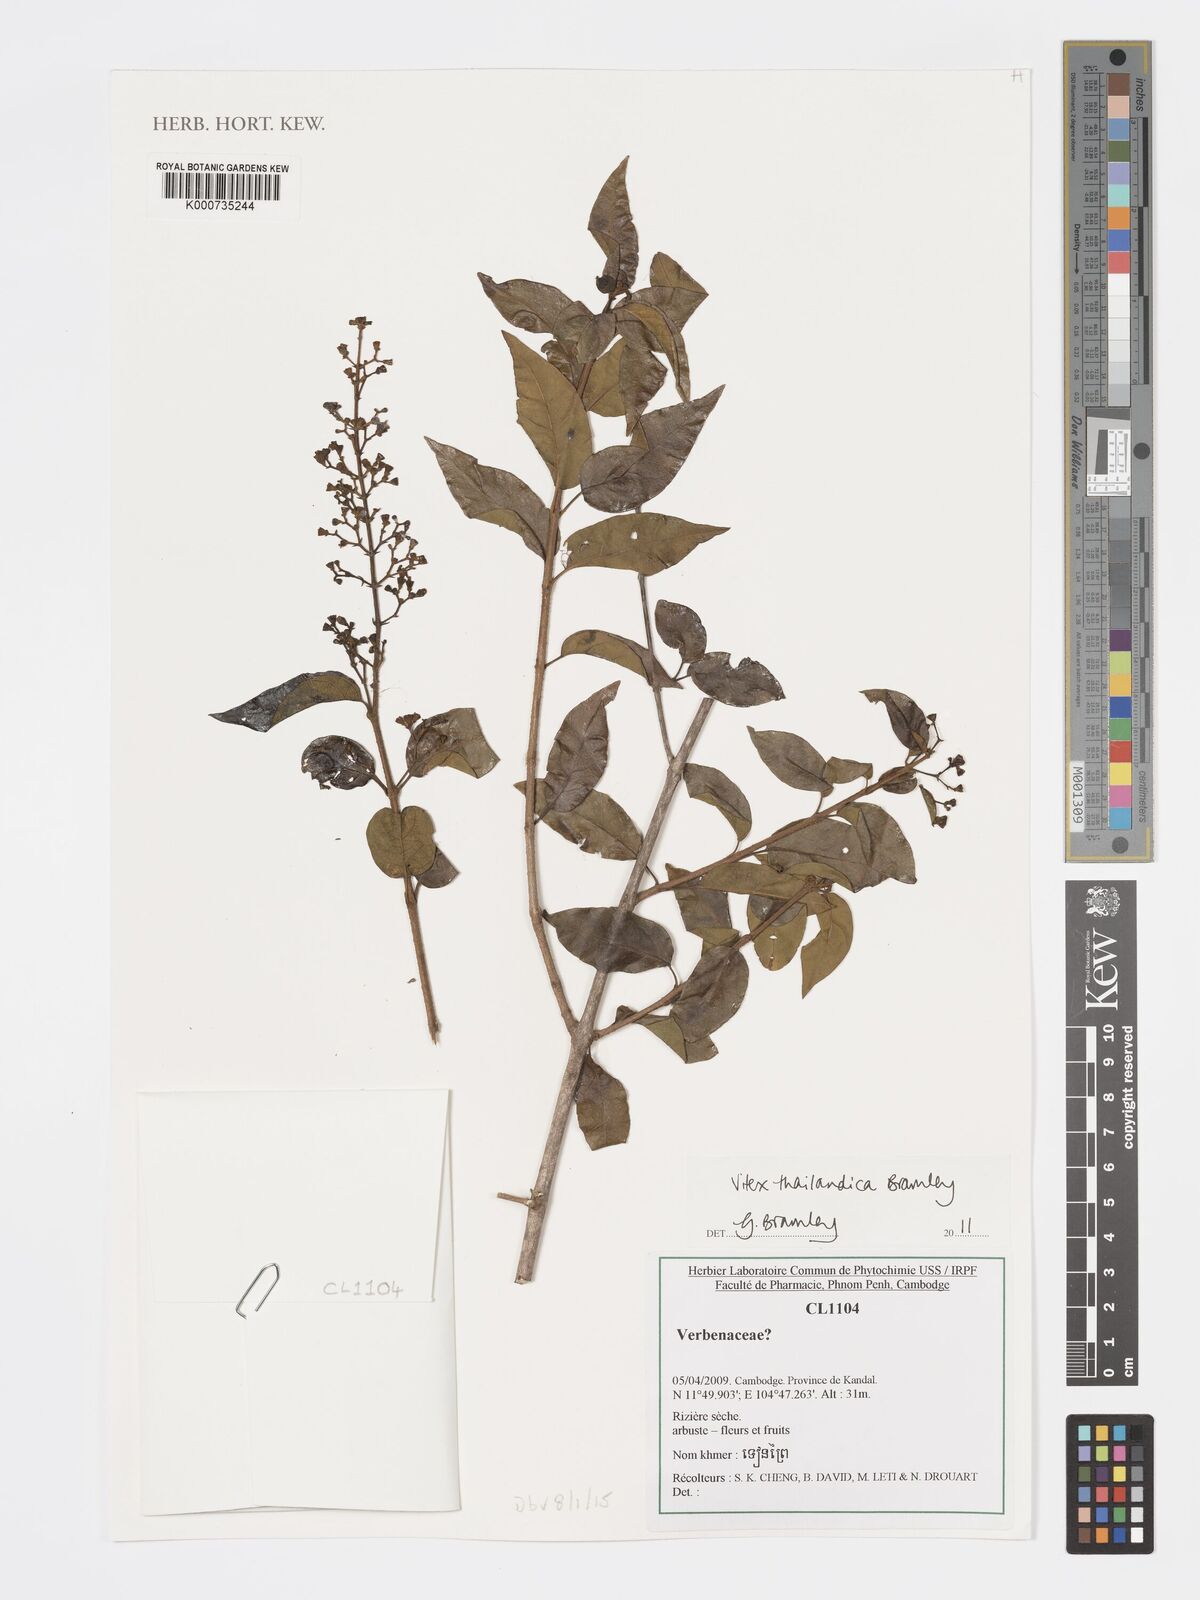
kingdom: Plantae
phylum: Tracheophyta
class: Magnoliopsida
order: Lamiales
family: Lamiaceae
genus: Vitex
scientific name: Vitex thailandica
